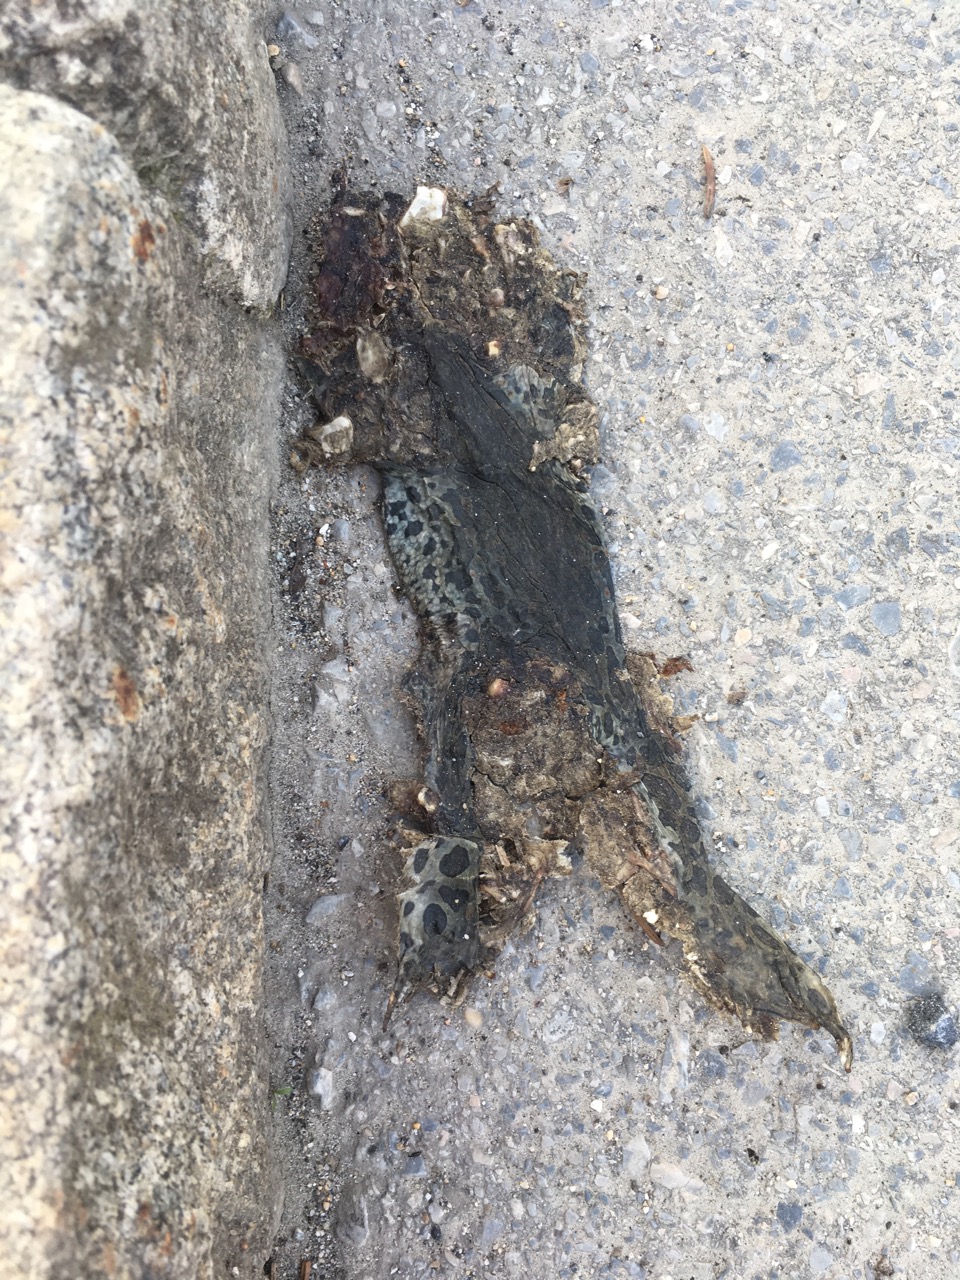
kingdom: Animalia
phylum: Chordata
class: Amphibia
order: Anura
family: Bufonidae
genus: Bufotes
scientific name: Bufotes viridis
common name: European green toad
